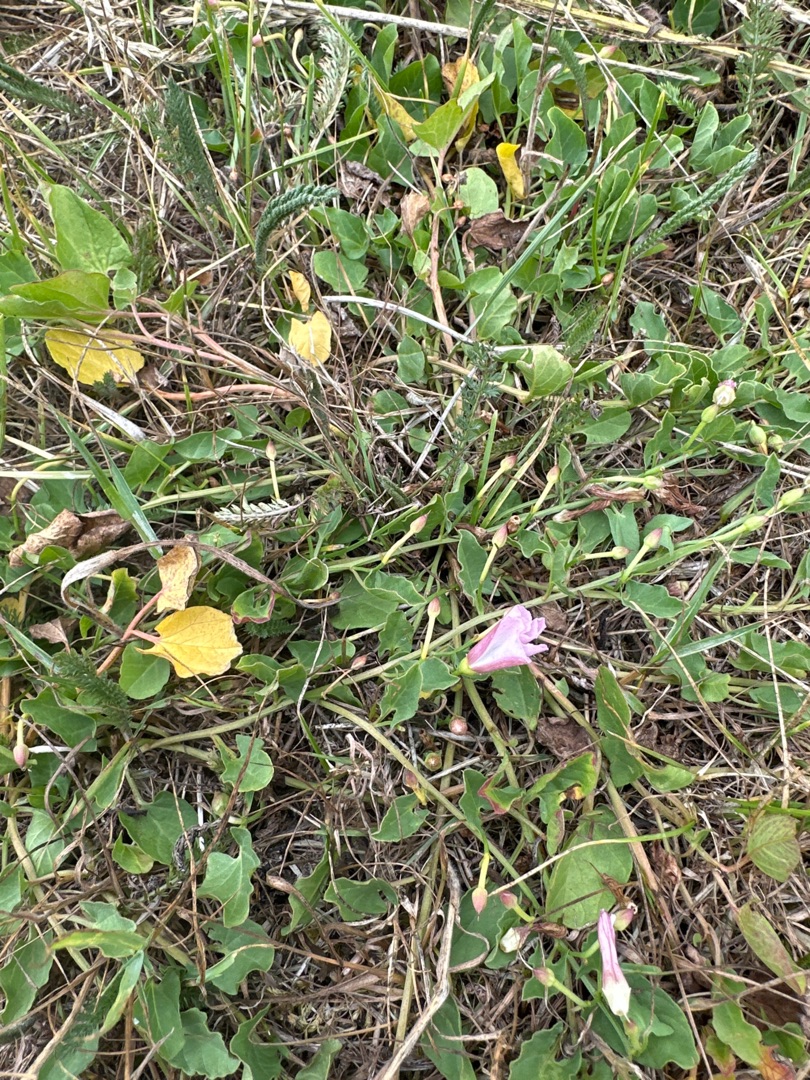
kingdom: Plantae
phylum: Tracheophyta
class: Magnoliopsida
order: Solanales
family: Convolvulaceae
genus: Convolvulus
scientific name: Convolvulus arvensis
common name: Ager-snerle
